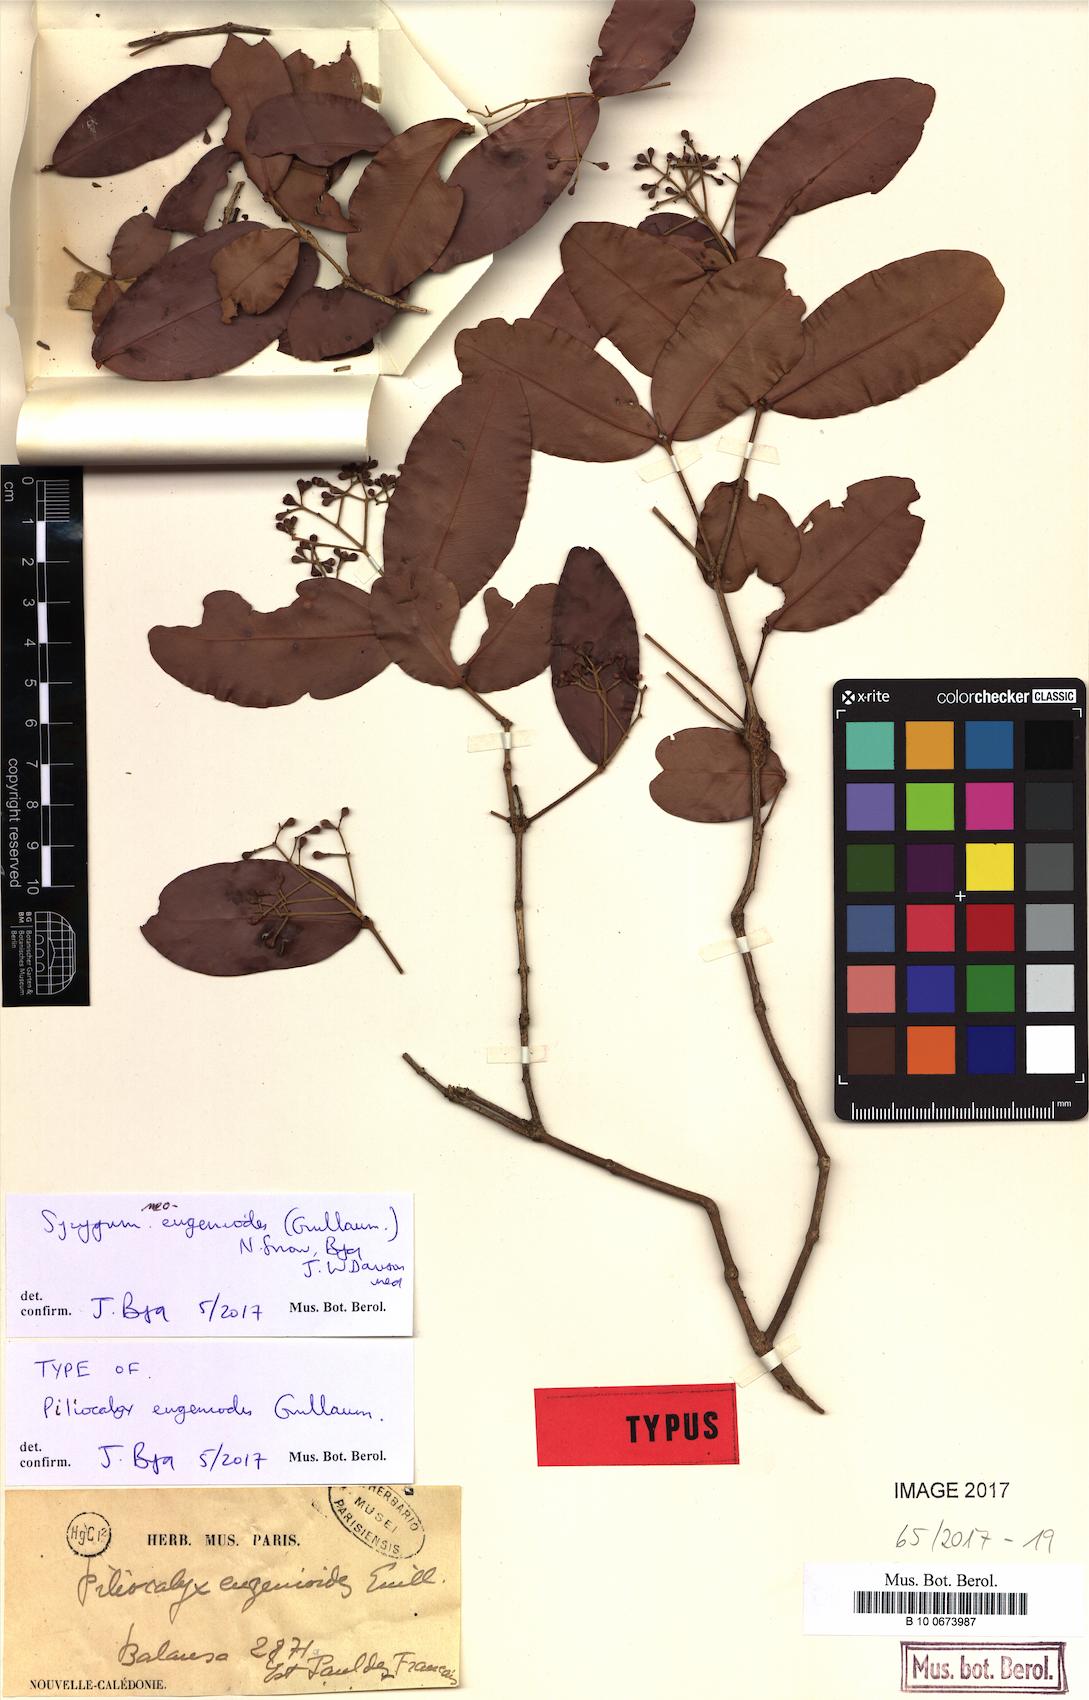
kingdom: Plantae
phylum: Tracheophyta
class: Magnoliopsida
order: Myrtales
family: Myrtaceae
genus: Syzygium
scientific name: Syzygium
